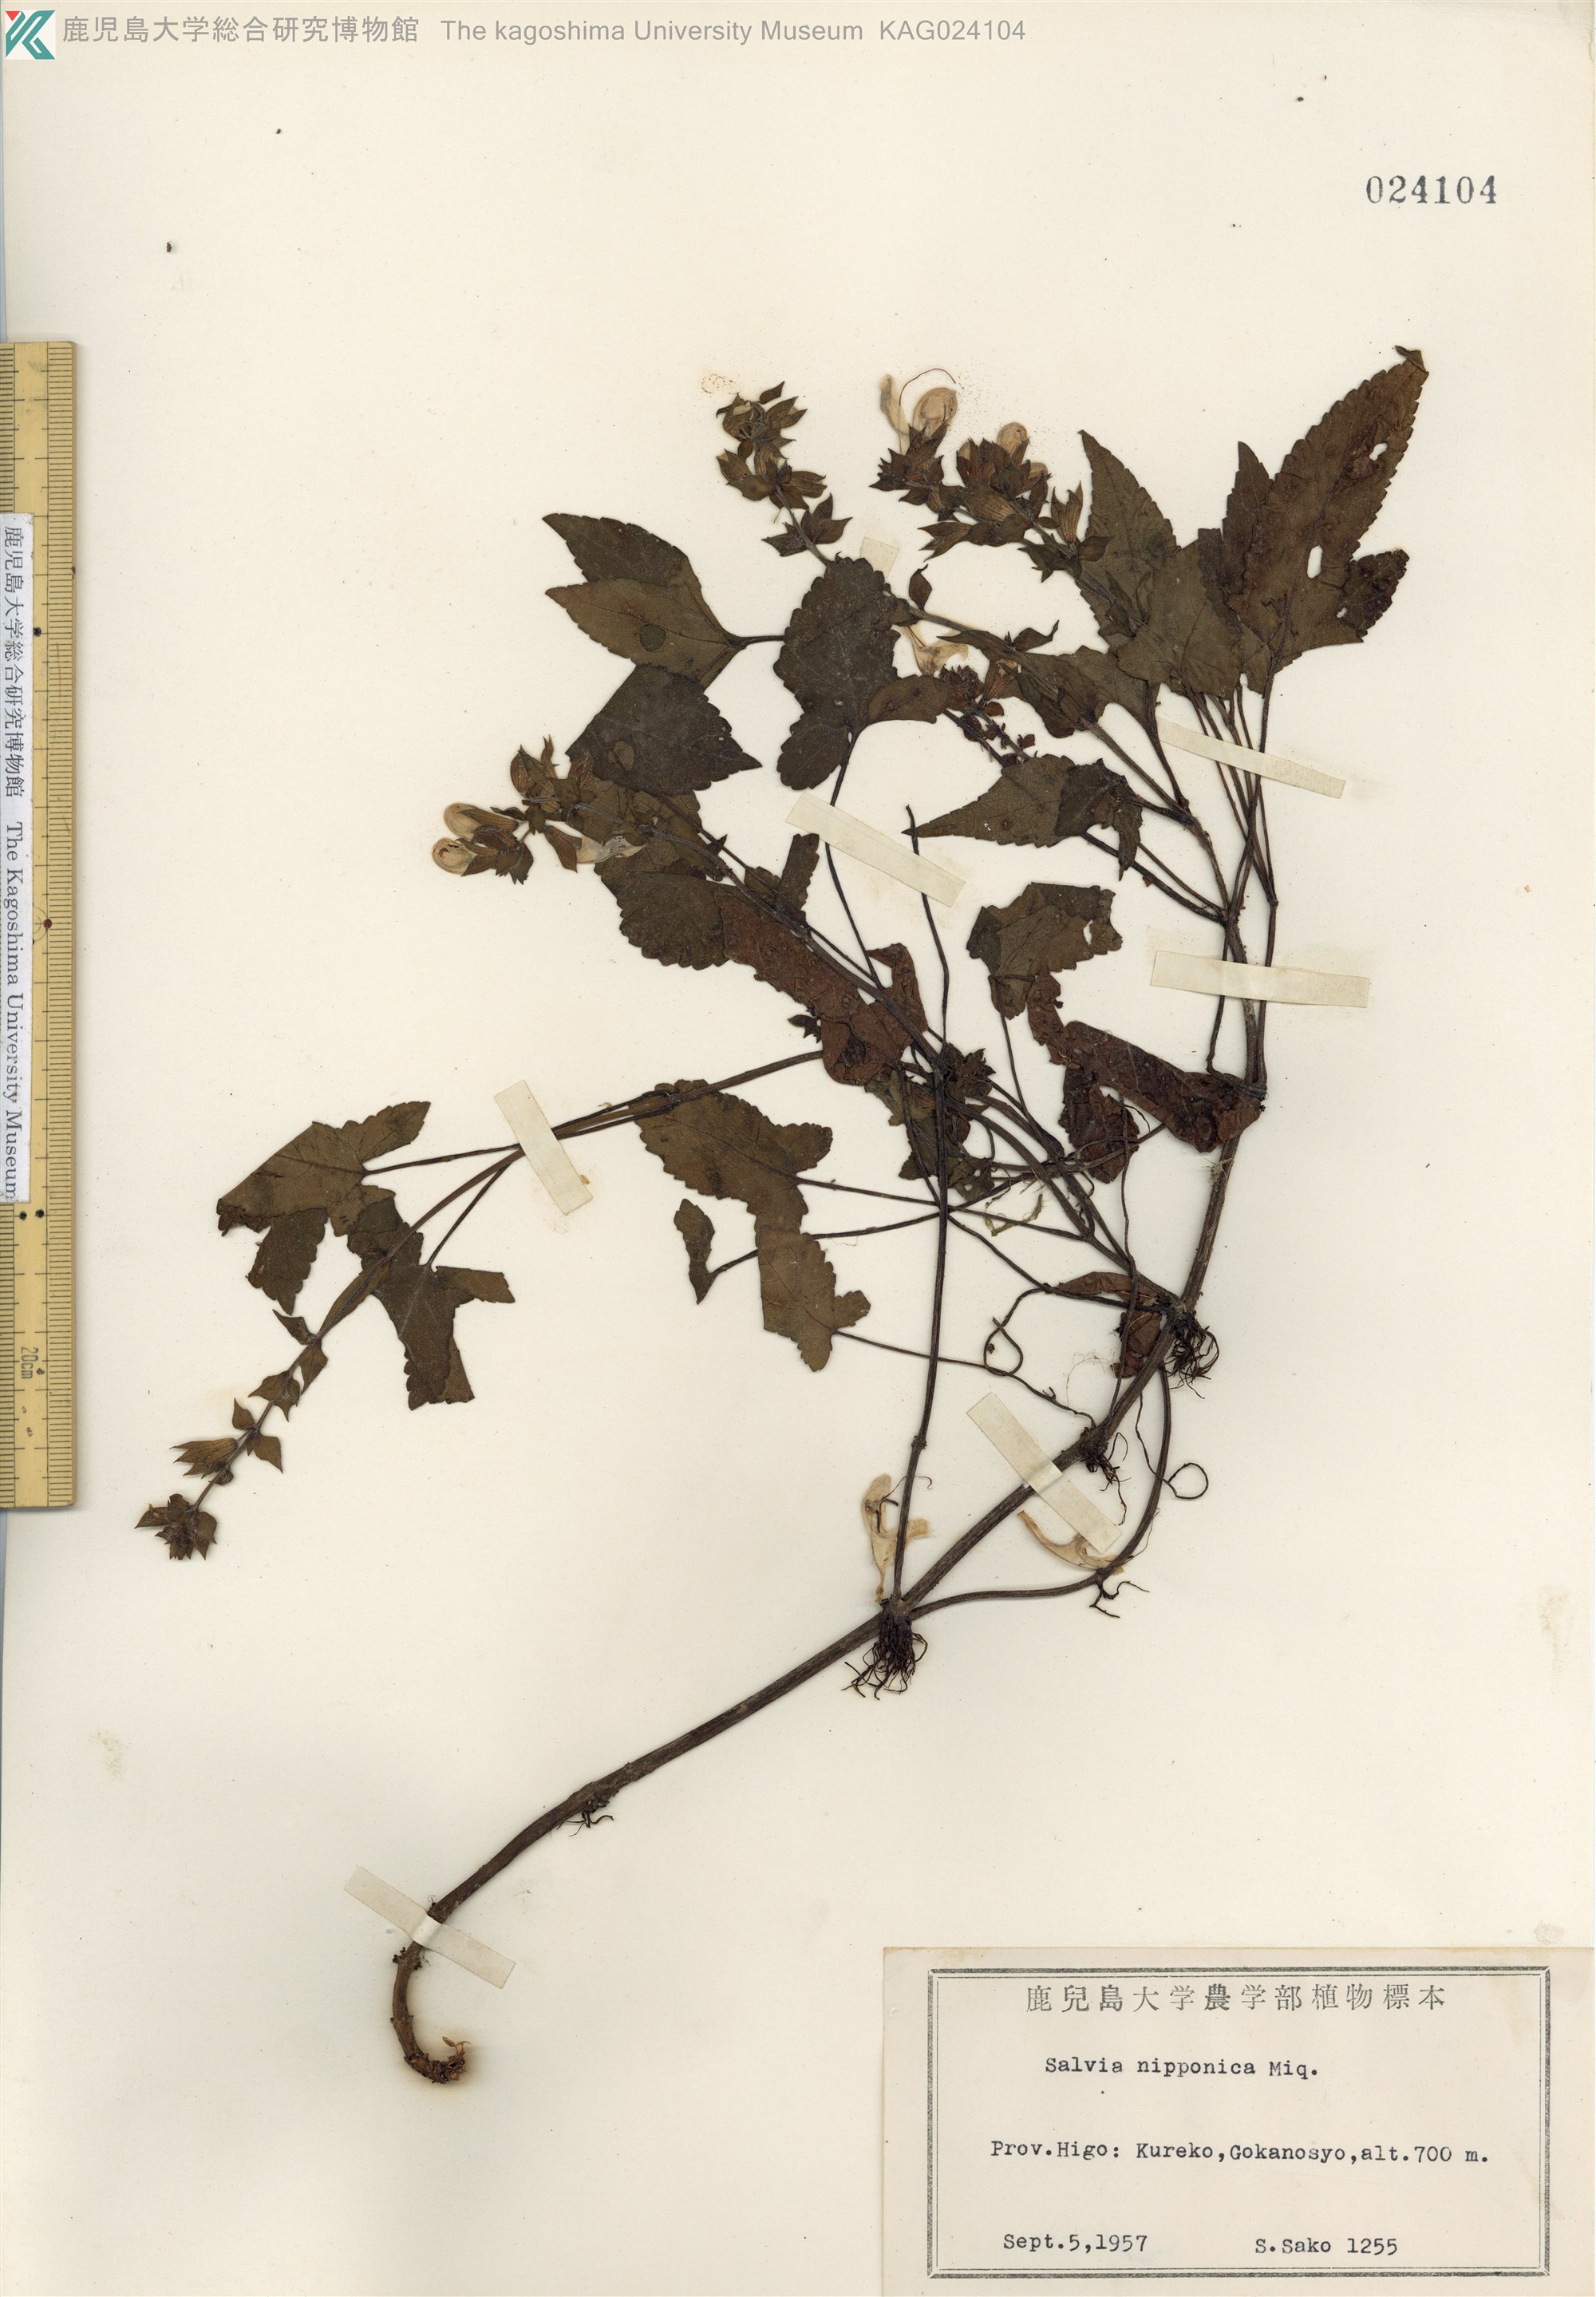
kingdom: Plantae
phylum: Tracheophyta
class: Magnoliopsida
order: Lamiales
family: Lamiaceae
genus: Salvia
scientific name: Salvia nipponica
